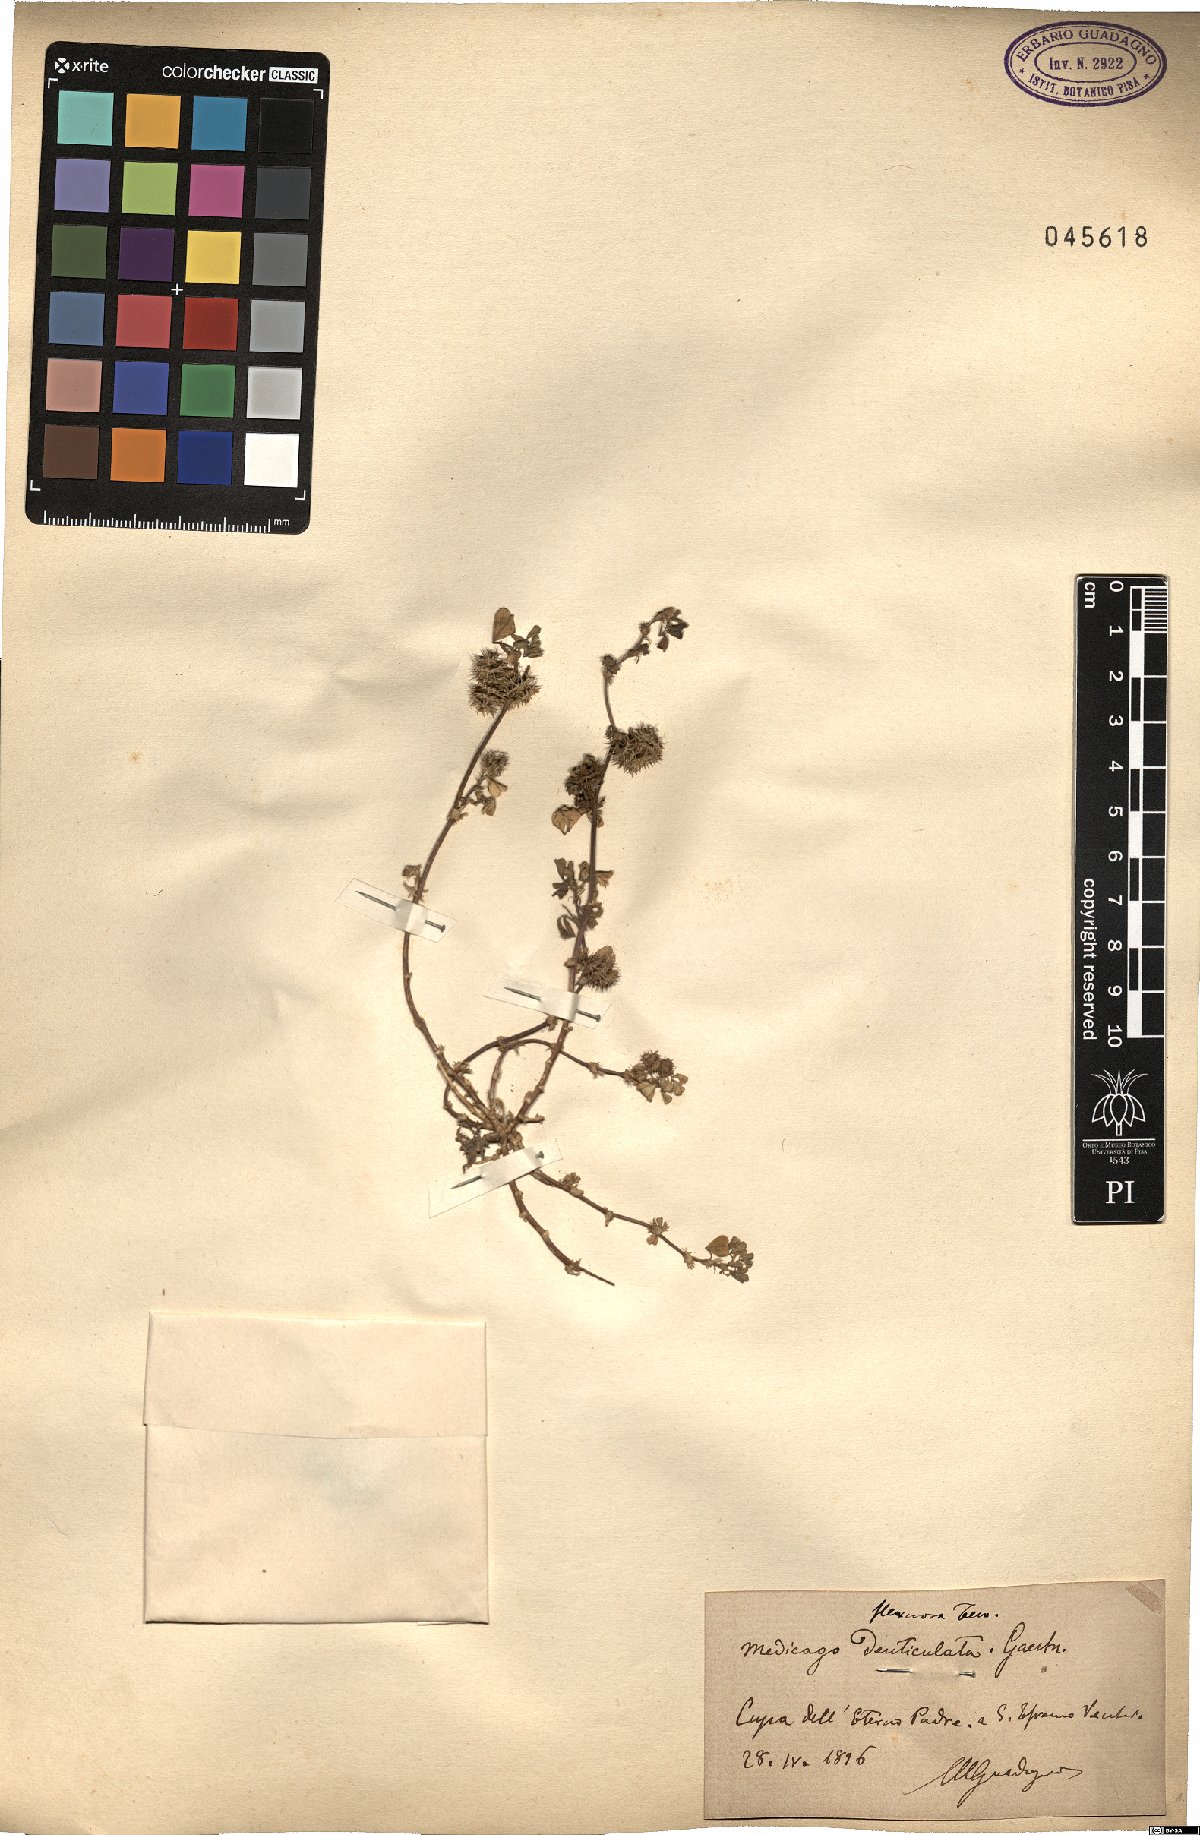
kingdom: Plantae
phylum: Tracheophyta
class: Magnoliopsida
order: Fabales
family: Fabaceae
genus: Medicago
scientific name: Medicago polymorpha
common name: Burclover
